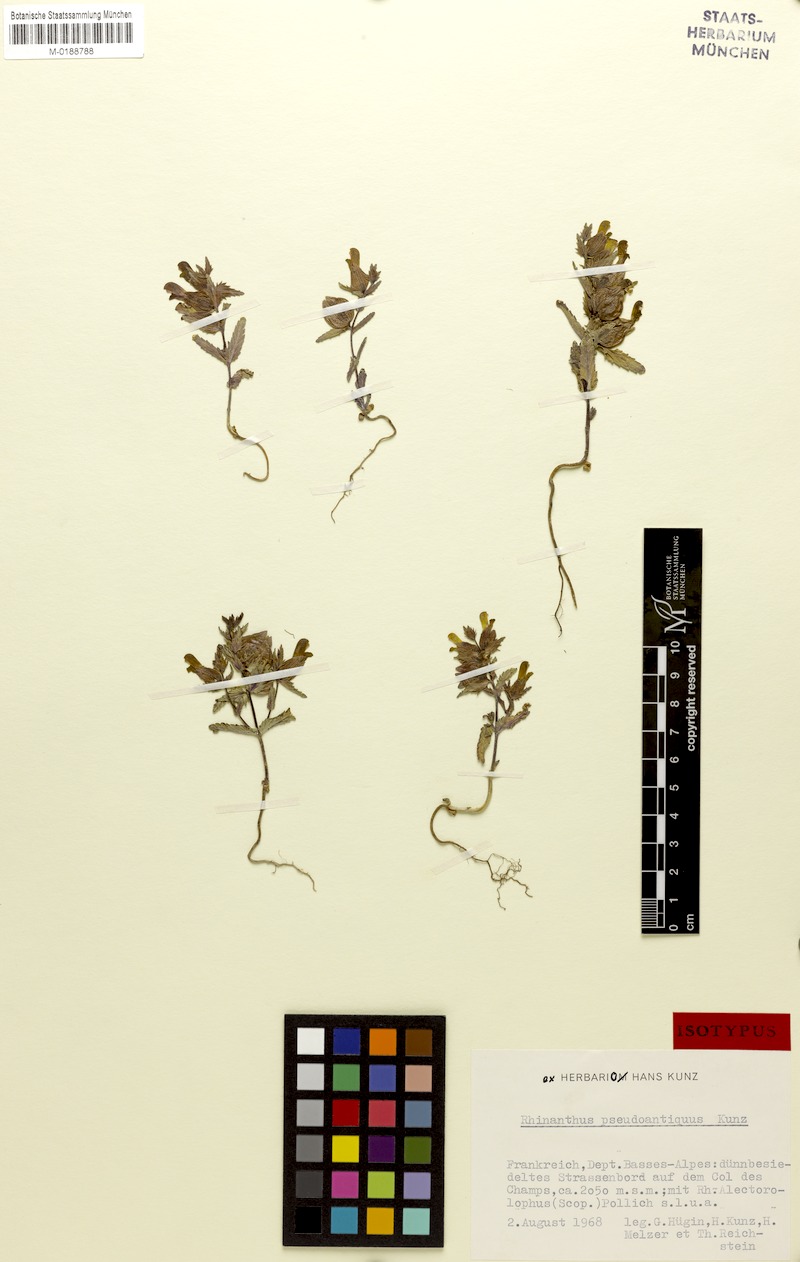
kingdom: Plantae
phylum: Tracheophyta
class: Magnoliopsida
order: Lamiales
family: Orobanchaceae
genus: Rhinanthus
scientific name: Rhinanthus pseudoantiquus
